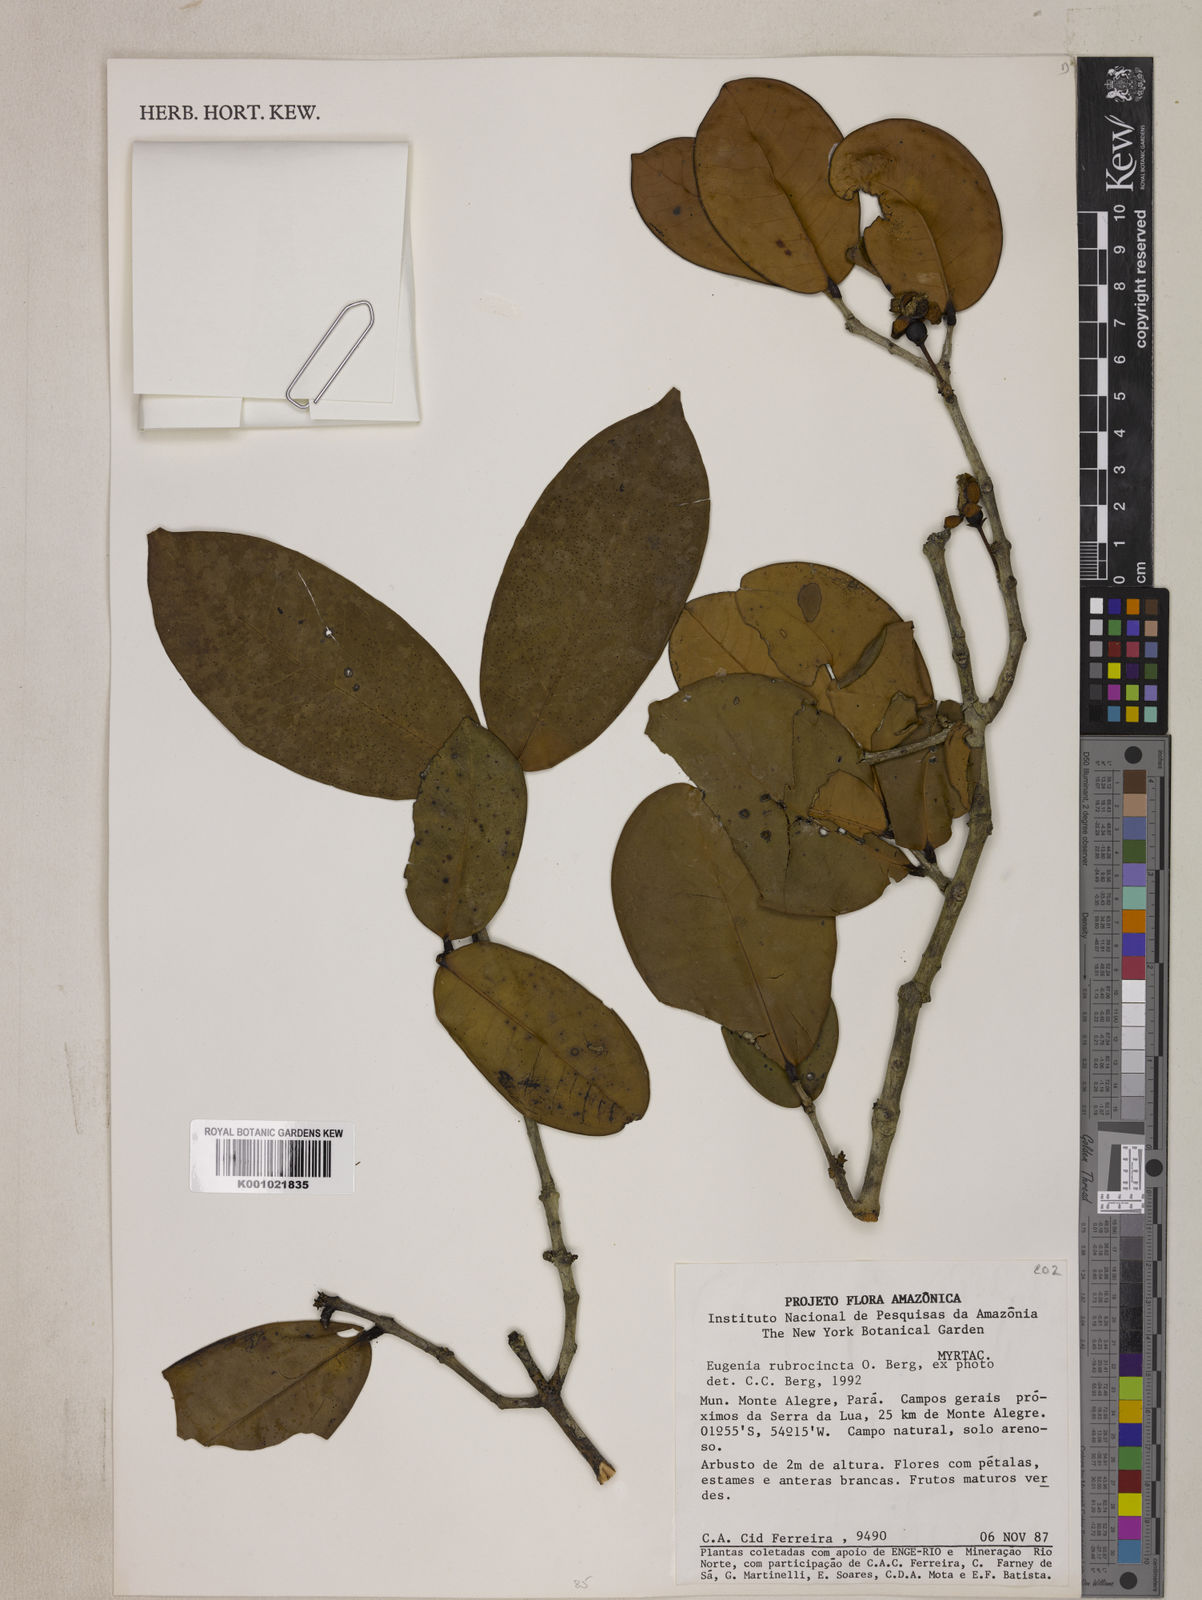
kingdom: Plantae
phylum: Tracheophyta
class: Magnoliopsida
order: Myrtales
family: Myrtaceae
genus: Eugenia
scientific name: Eugenia bimarginata
